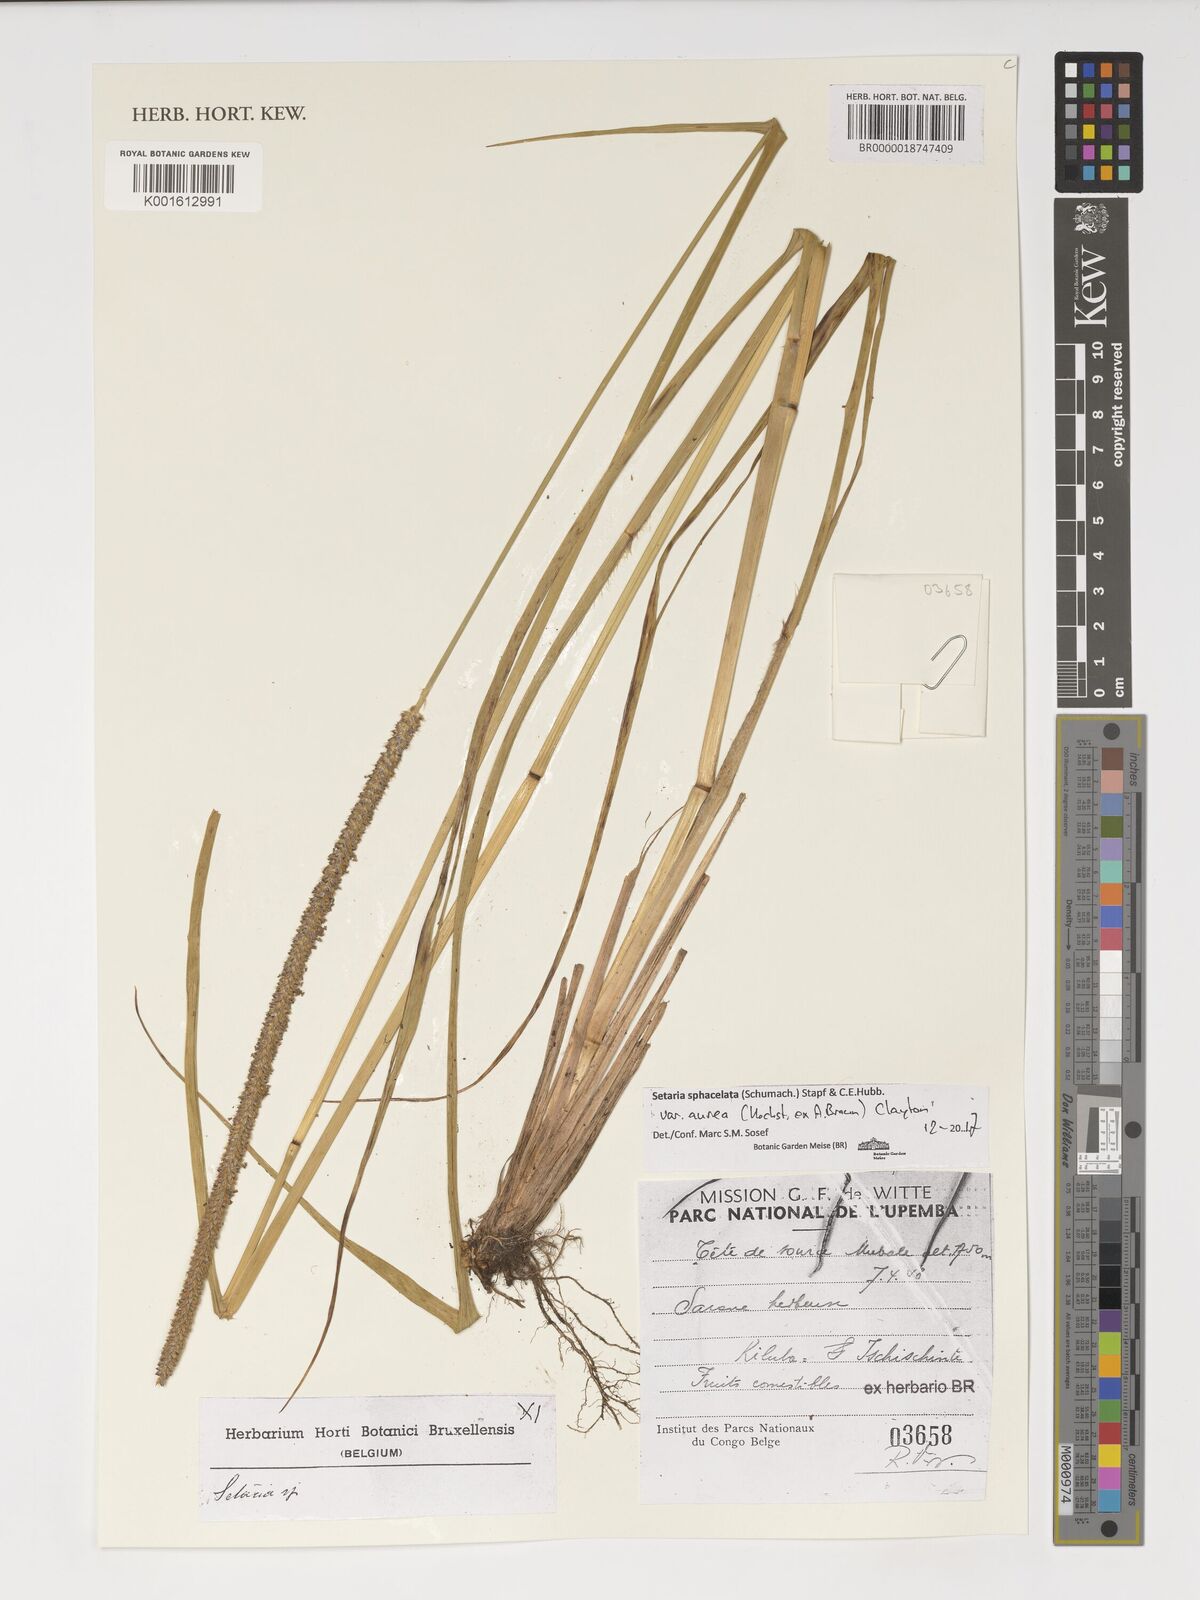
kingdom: Plantae
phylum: Tracheophyta
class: Liliopsida
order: Poales
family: Poaceae
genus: Setaria
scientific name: Setaria sphacelata
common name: African bristlegrass
